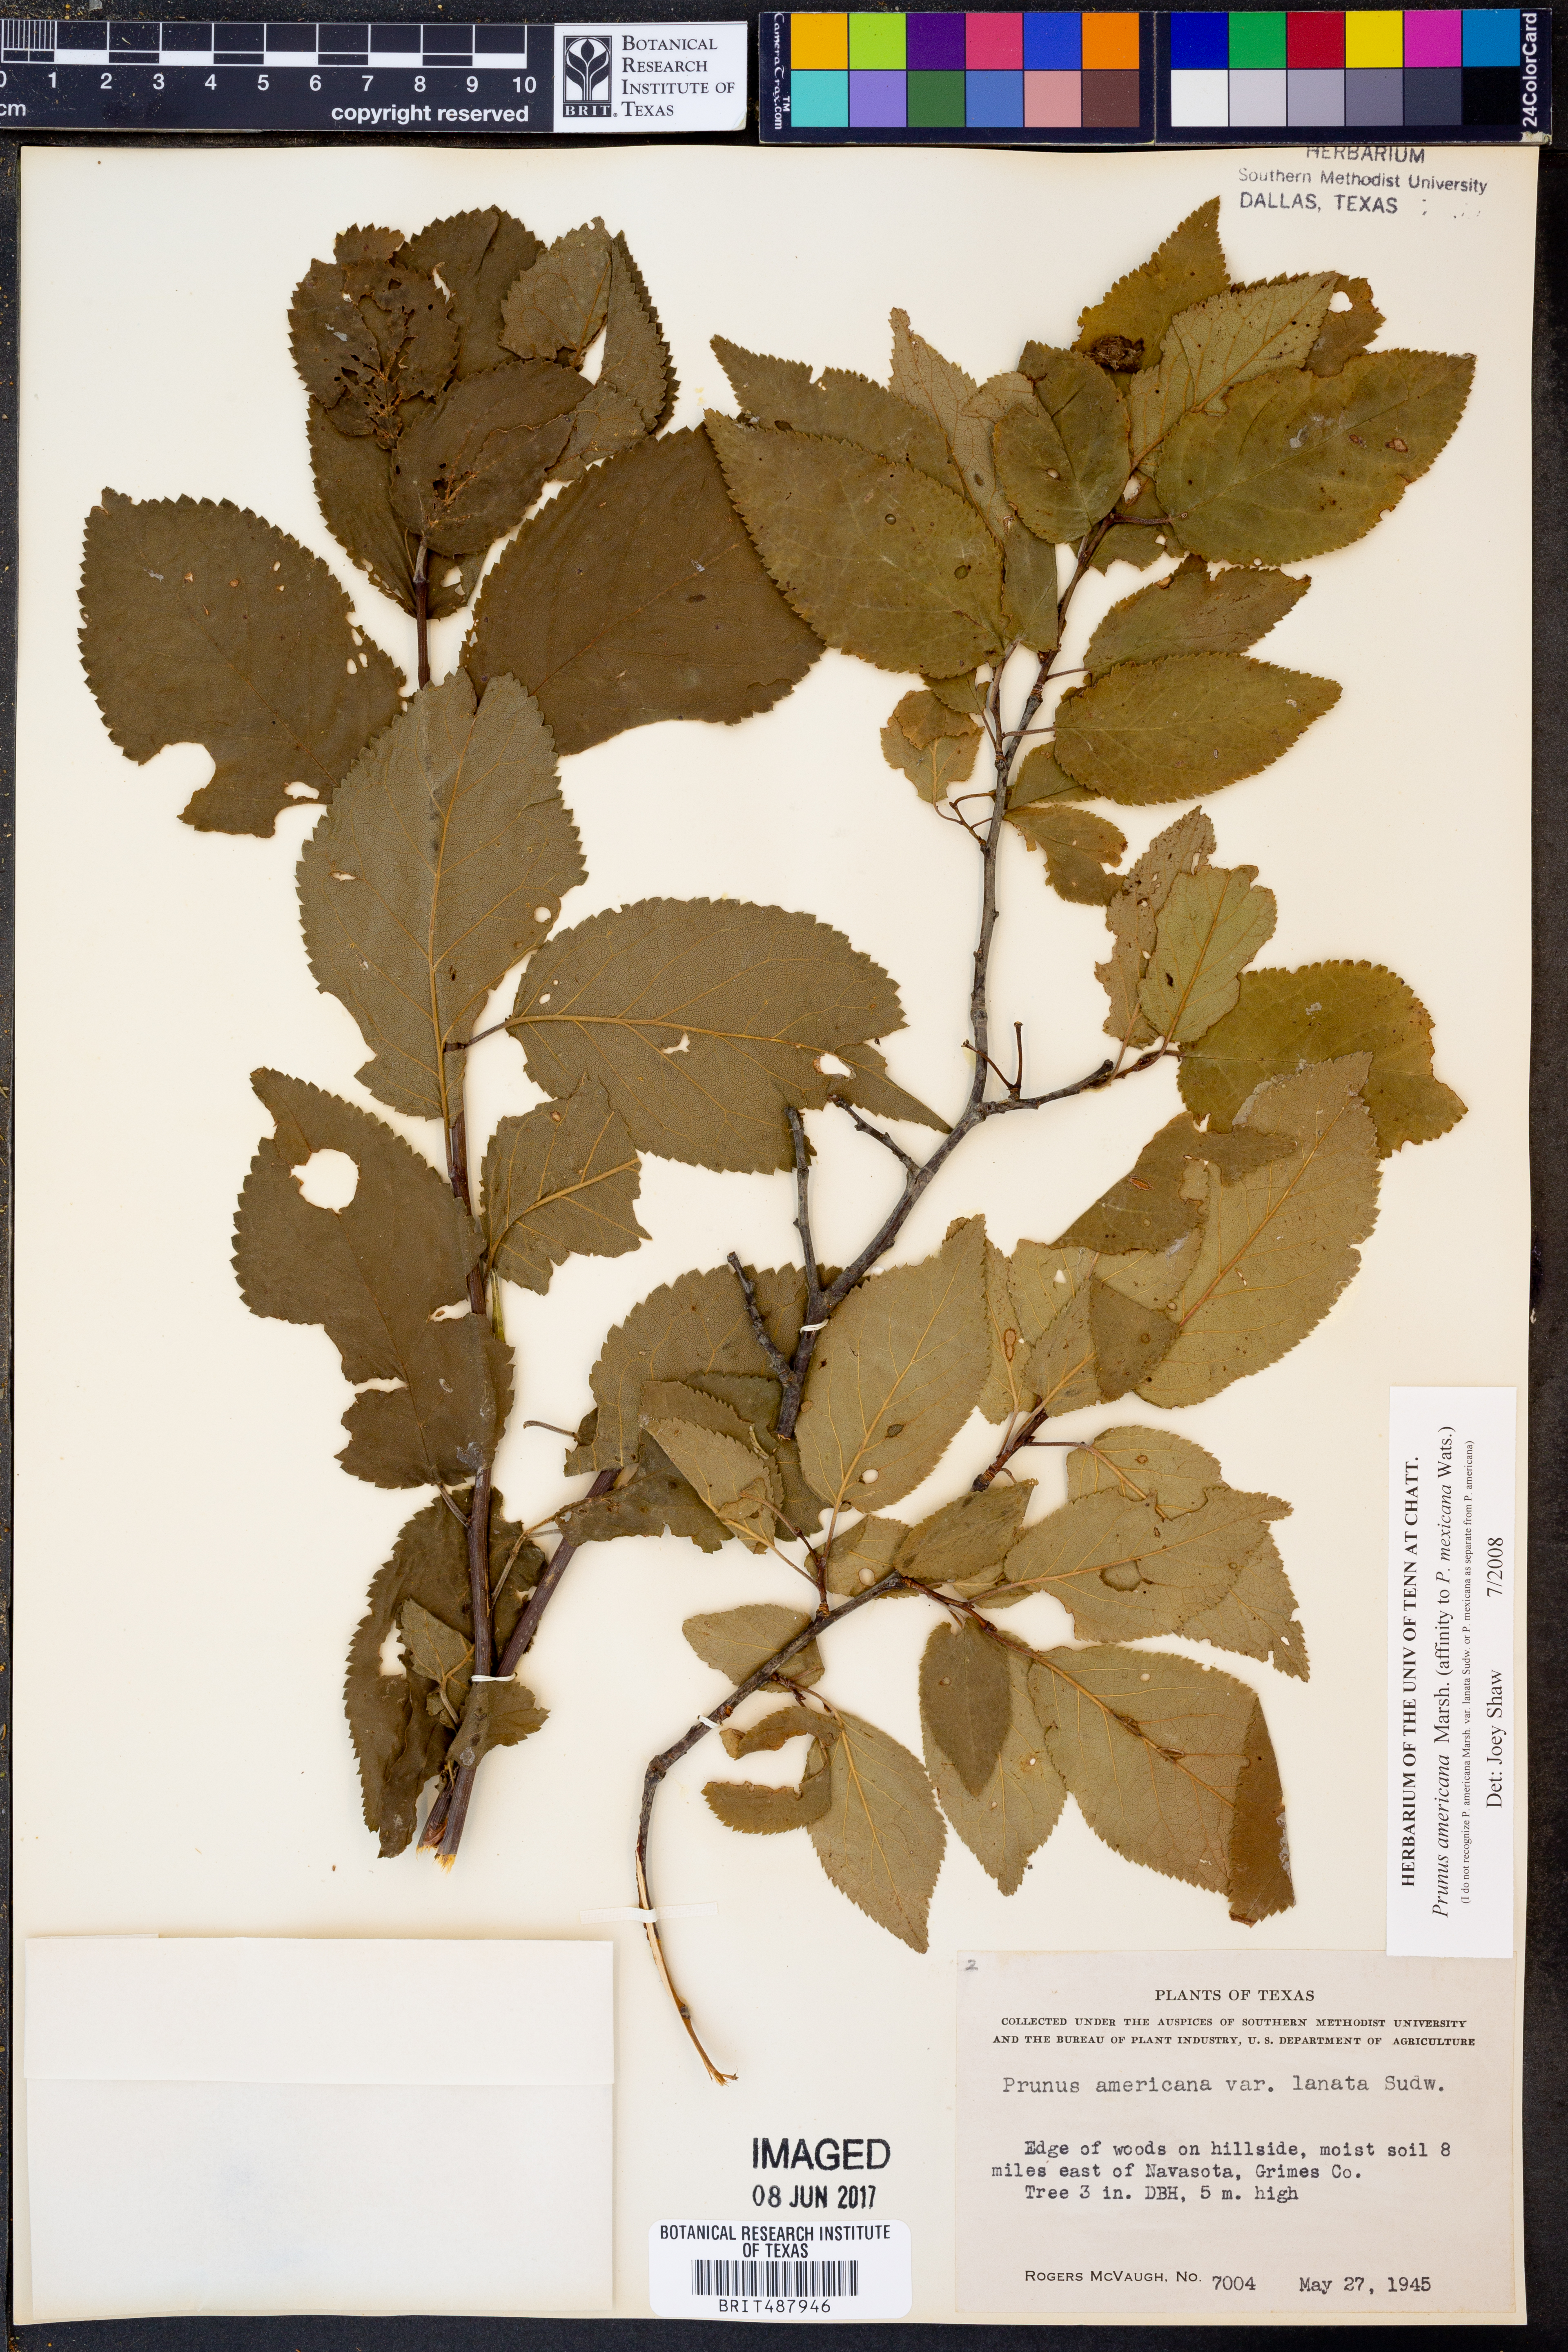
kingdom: Plantae
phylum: Tracheophyta
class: Magnoliopsida
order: Rosales
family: Rosaceae
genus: Prunus
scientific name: Prunus americana
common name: American plum
